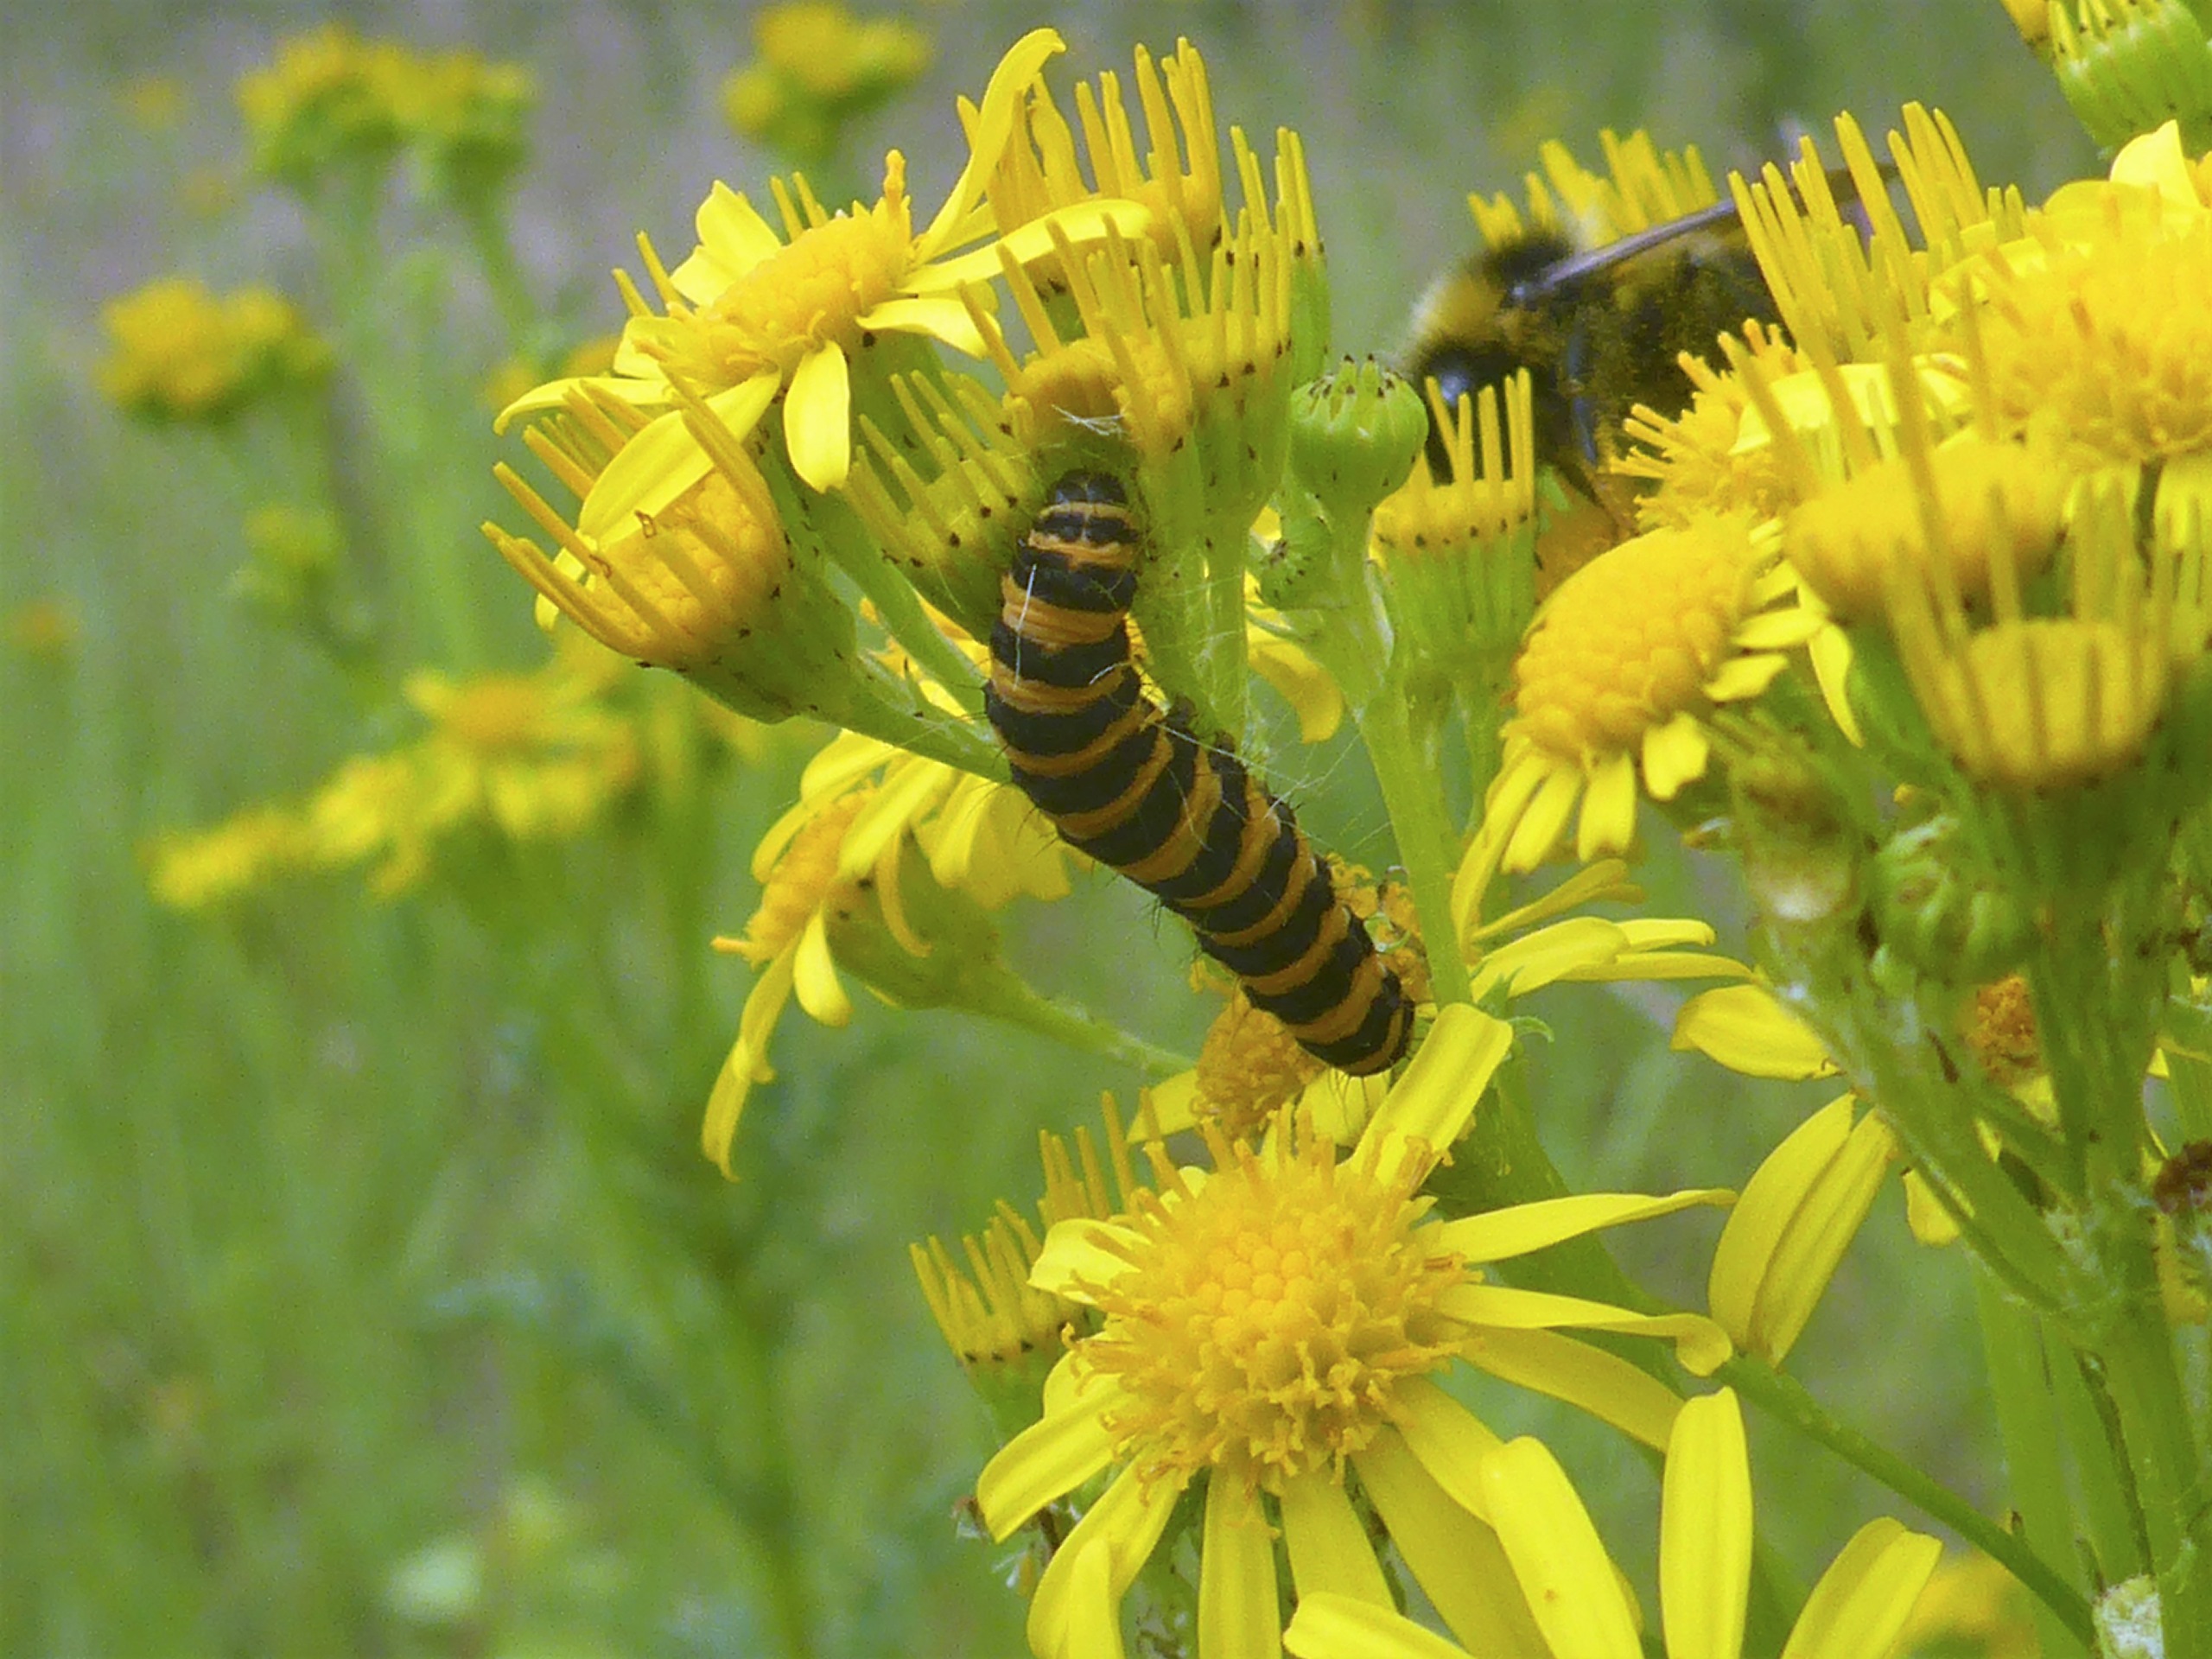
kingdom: Animalia
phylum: Arthropoda
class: Insecta
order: Lepidoptera
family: Erebidae
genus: Tyria
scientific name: Tyria jacobaeae
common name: Blodplet
